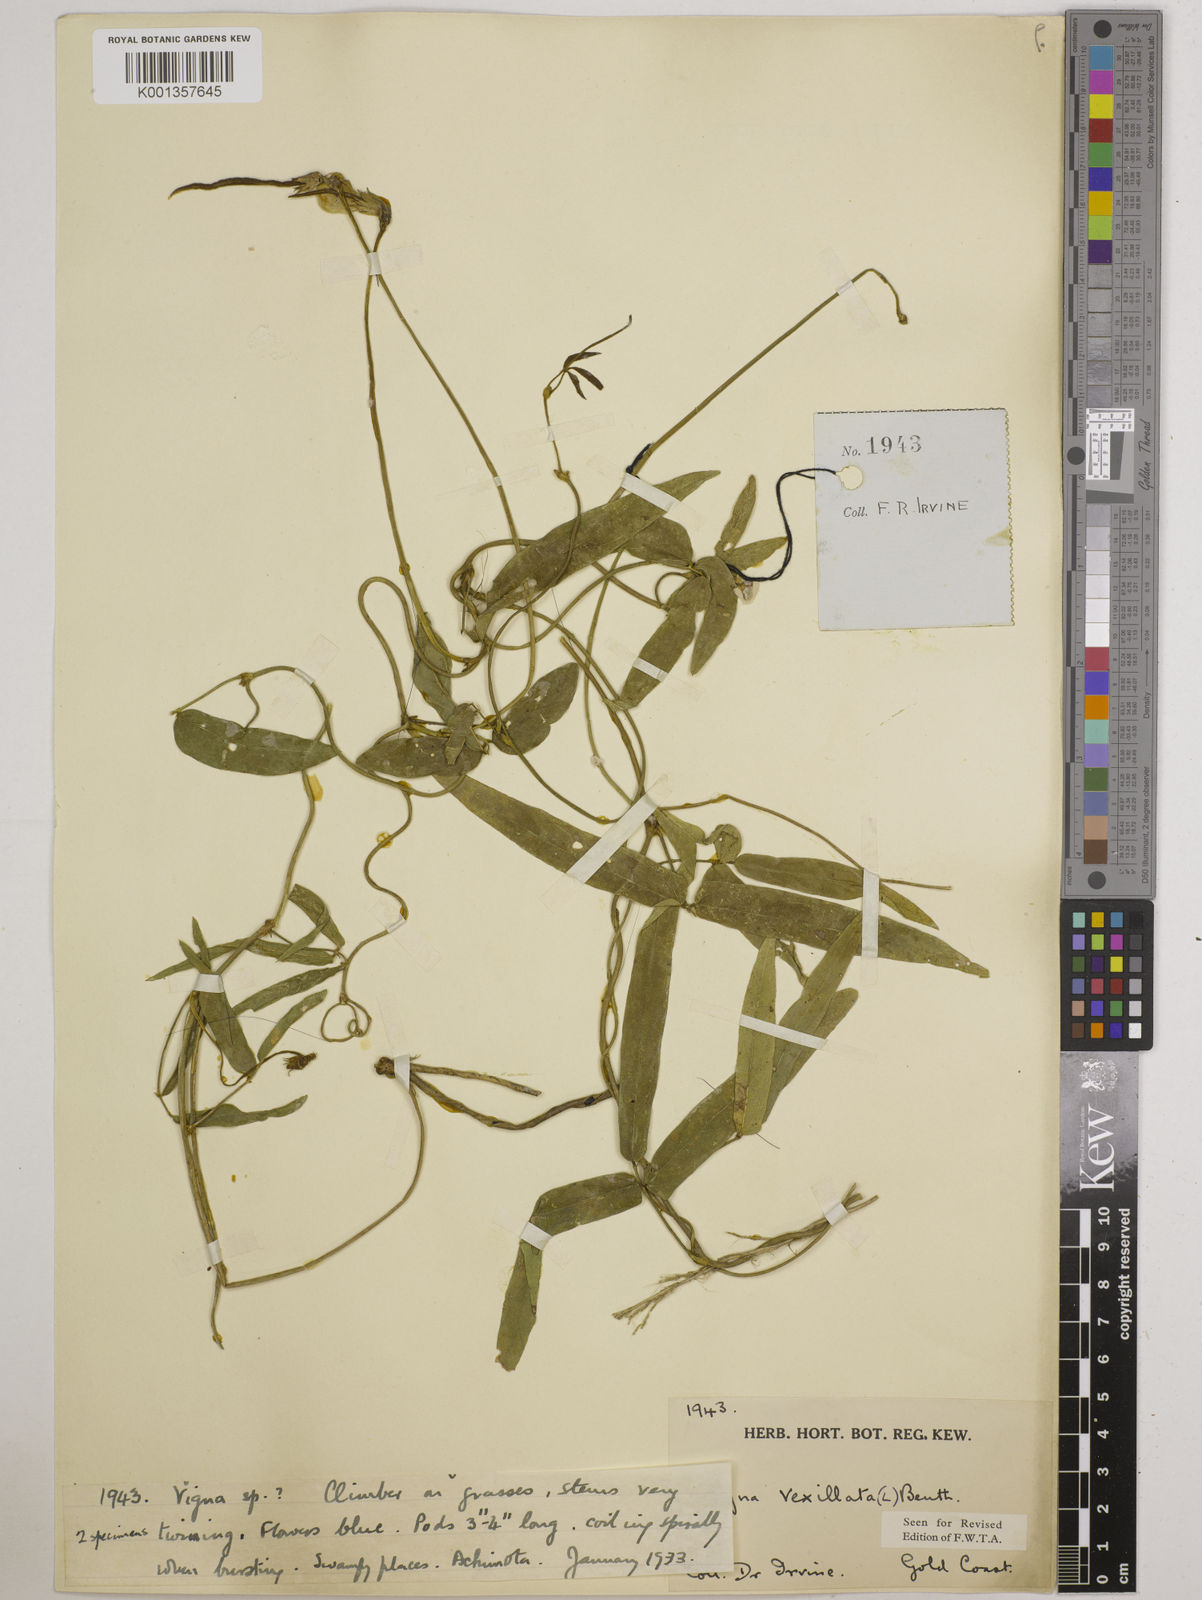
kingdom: Plantae
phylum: Tracheophyta
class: Magnoliopsida
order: Fabales
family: Fabaceae
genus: Vigna
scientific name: Vigna vexillata
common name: Zombi pea
